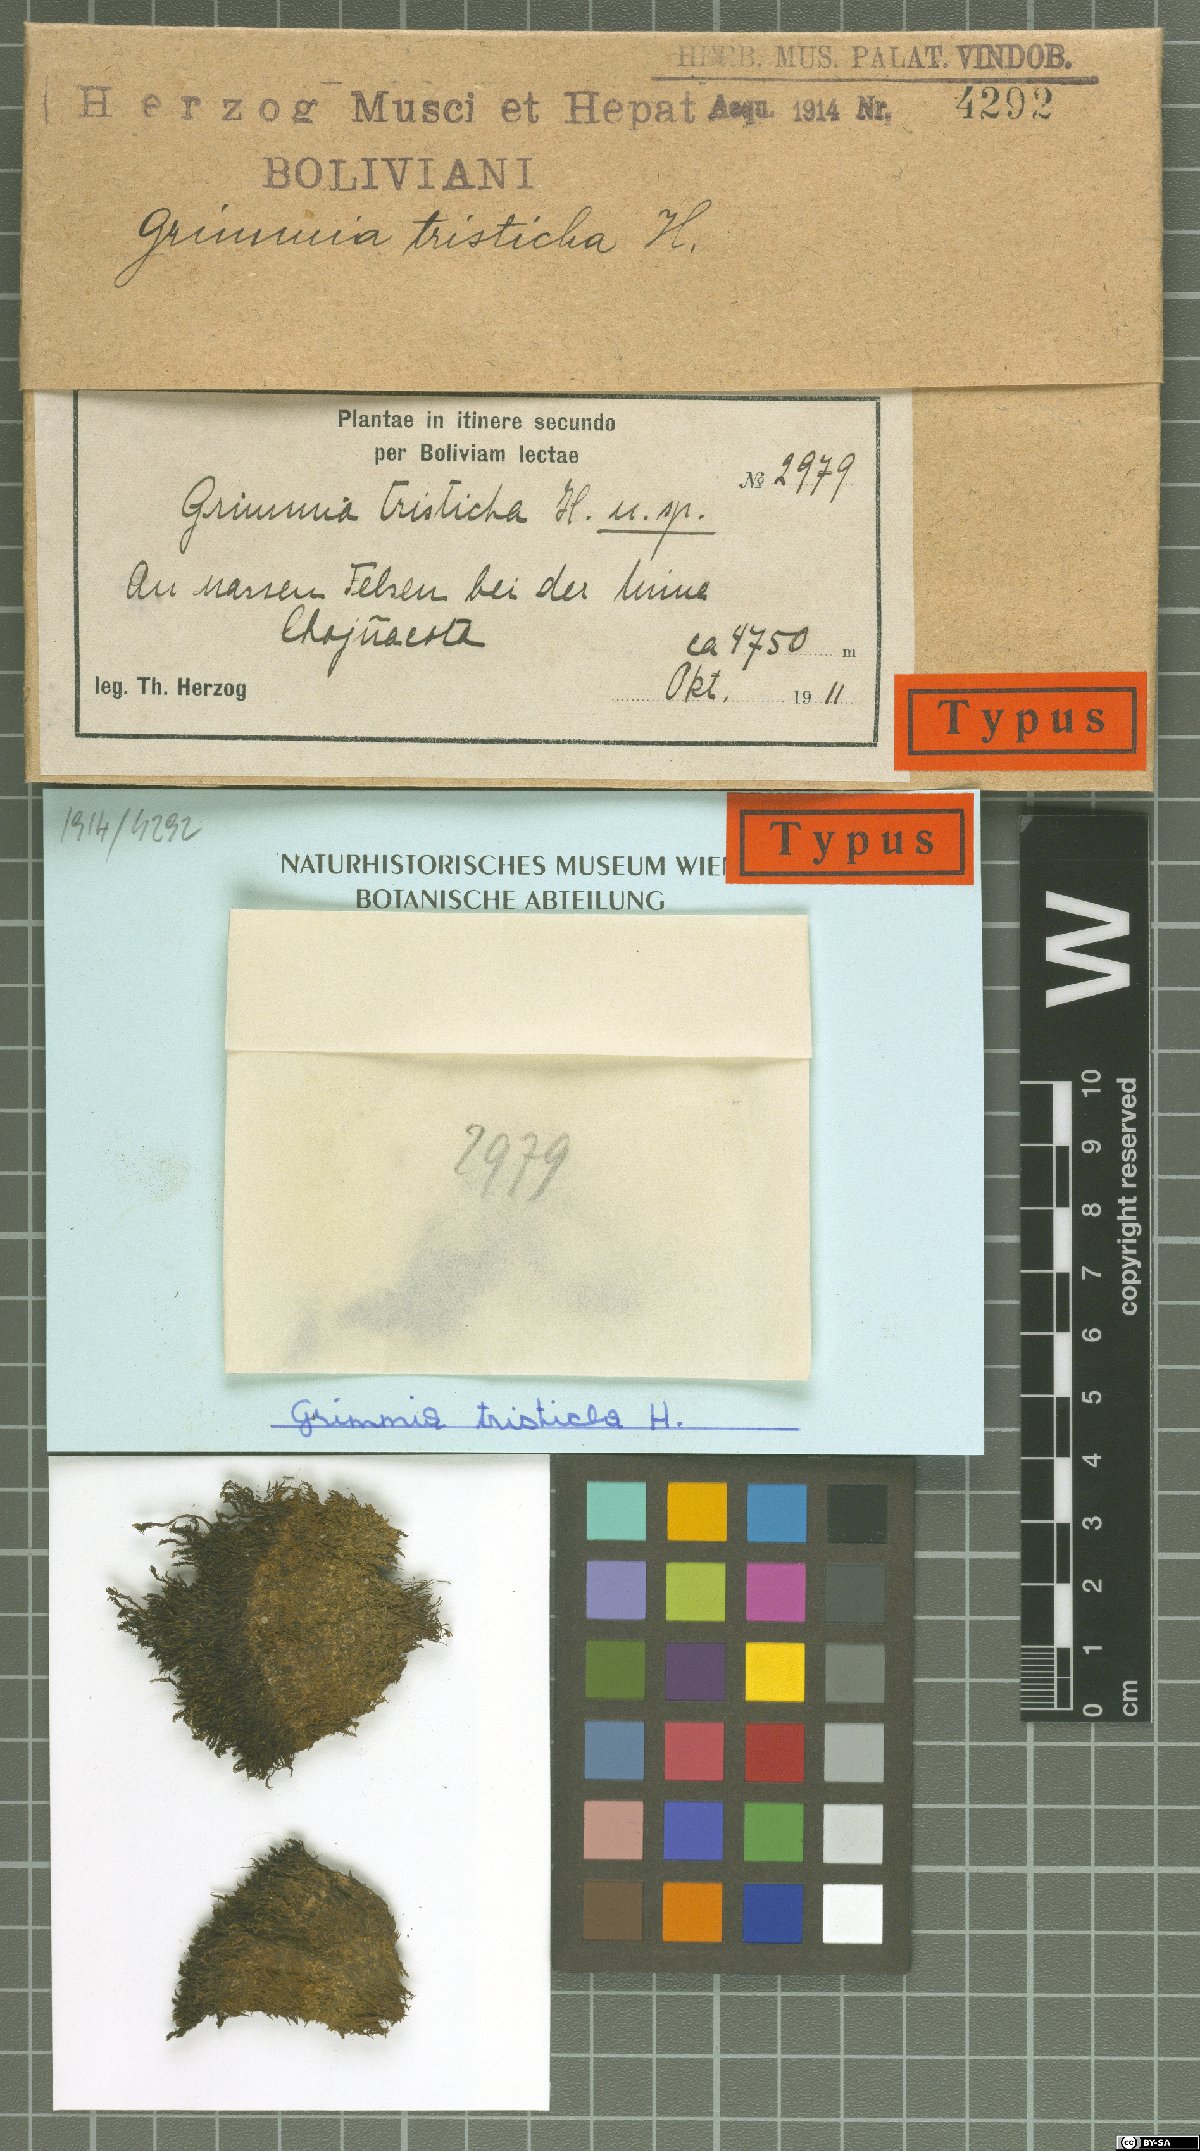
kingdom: Plantae
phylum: Bryophyta
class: Bryopsida
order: Grimmiales
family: Grimmiaceae
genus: Grimmia
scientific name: Grimmia atrata
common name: Copper grimmia
